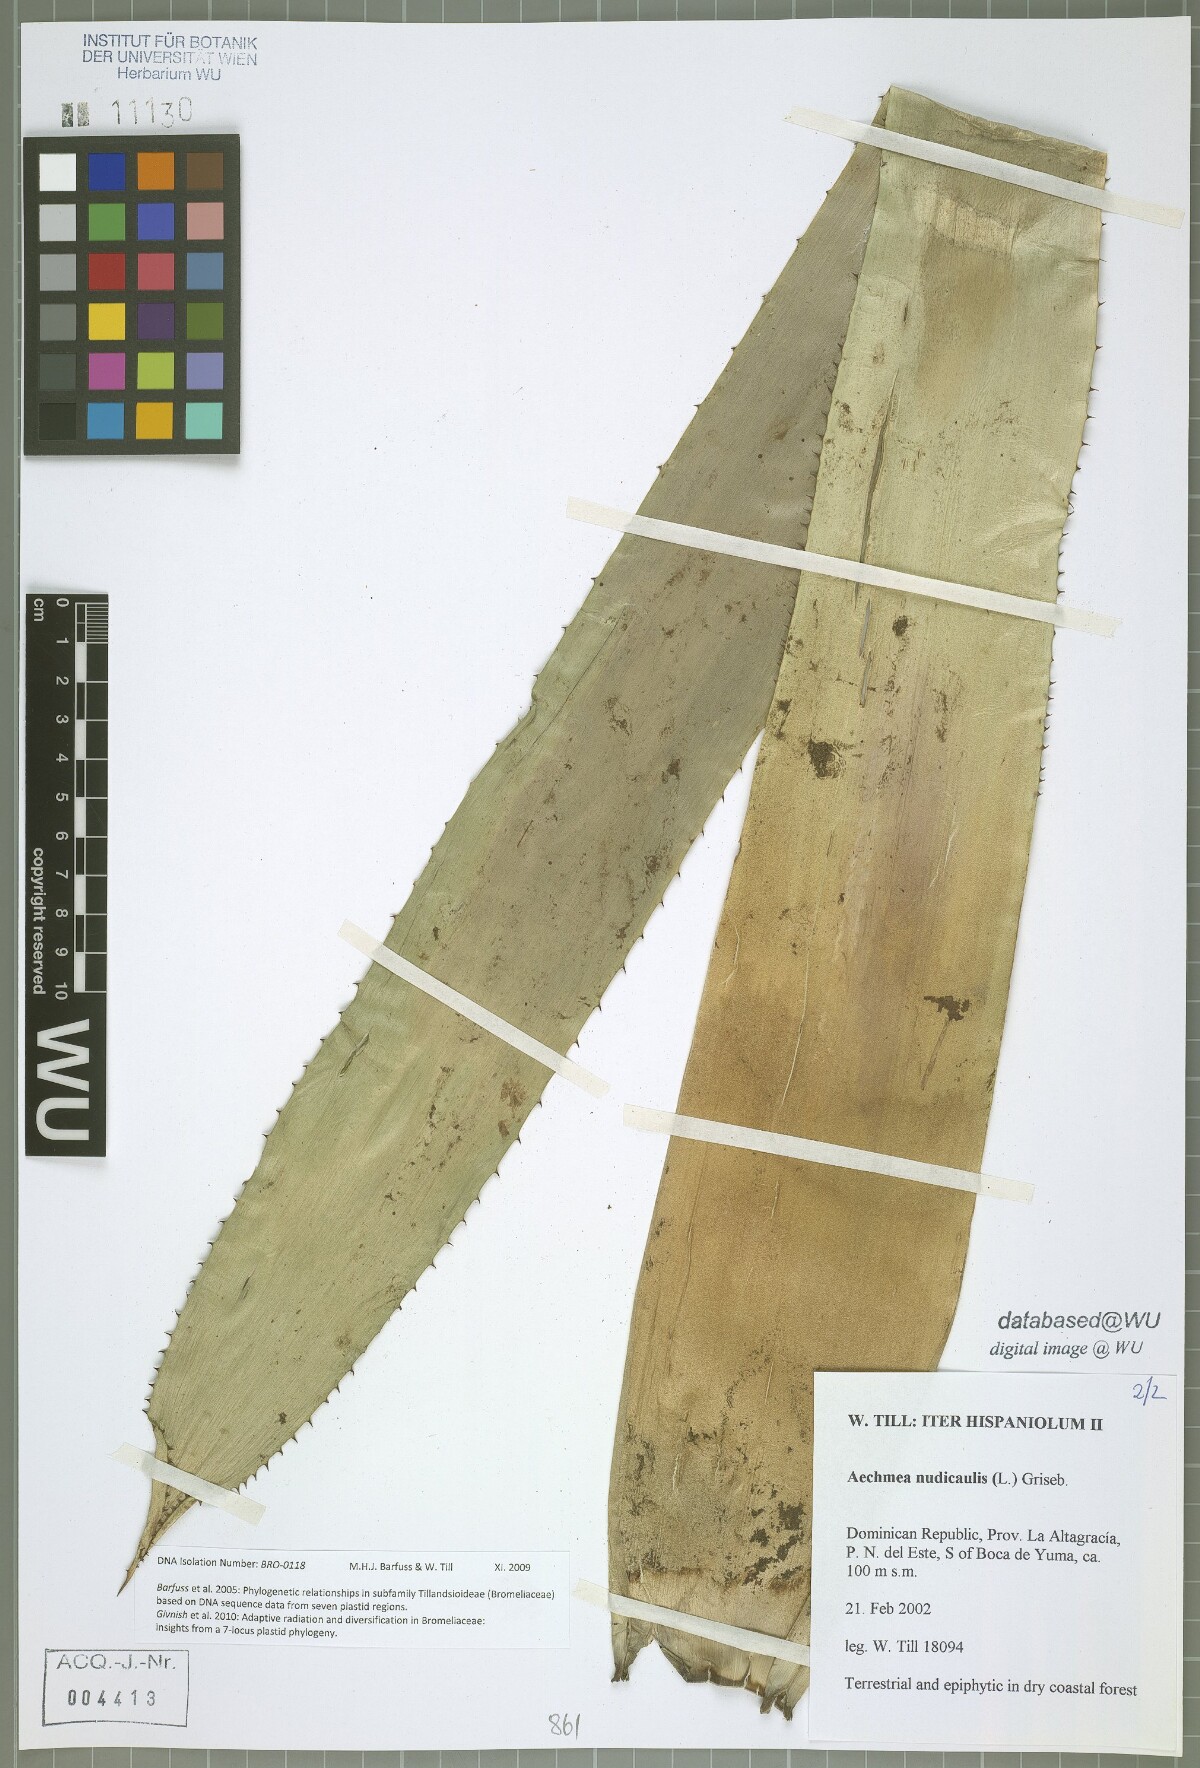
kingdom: Plantae
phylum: Tracheophyta
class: Liliopsida
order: Poales
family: Bromeliaceae
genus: Aechmea
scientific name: Aechmea nudicaulis
